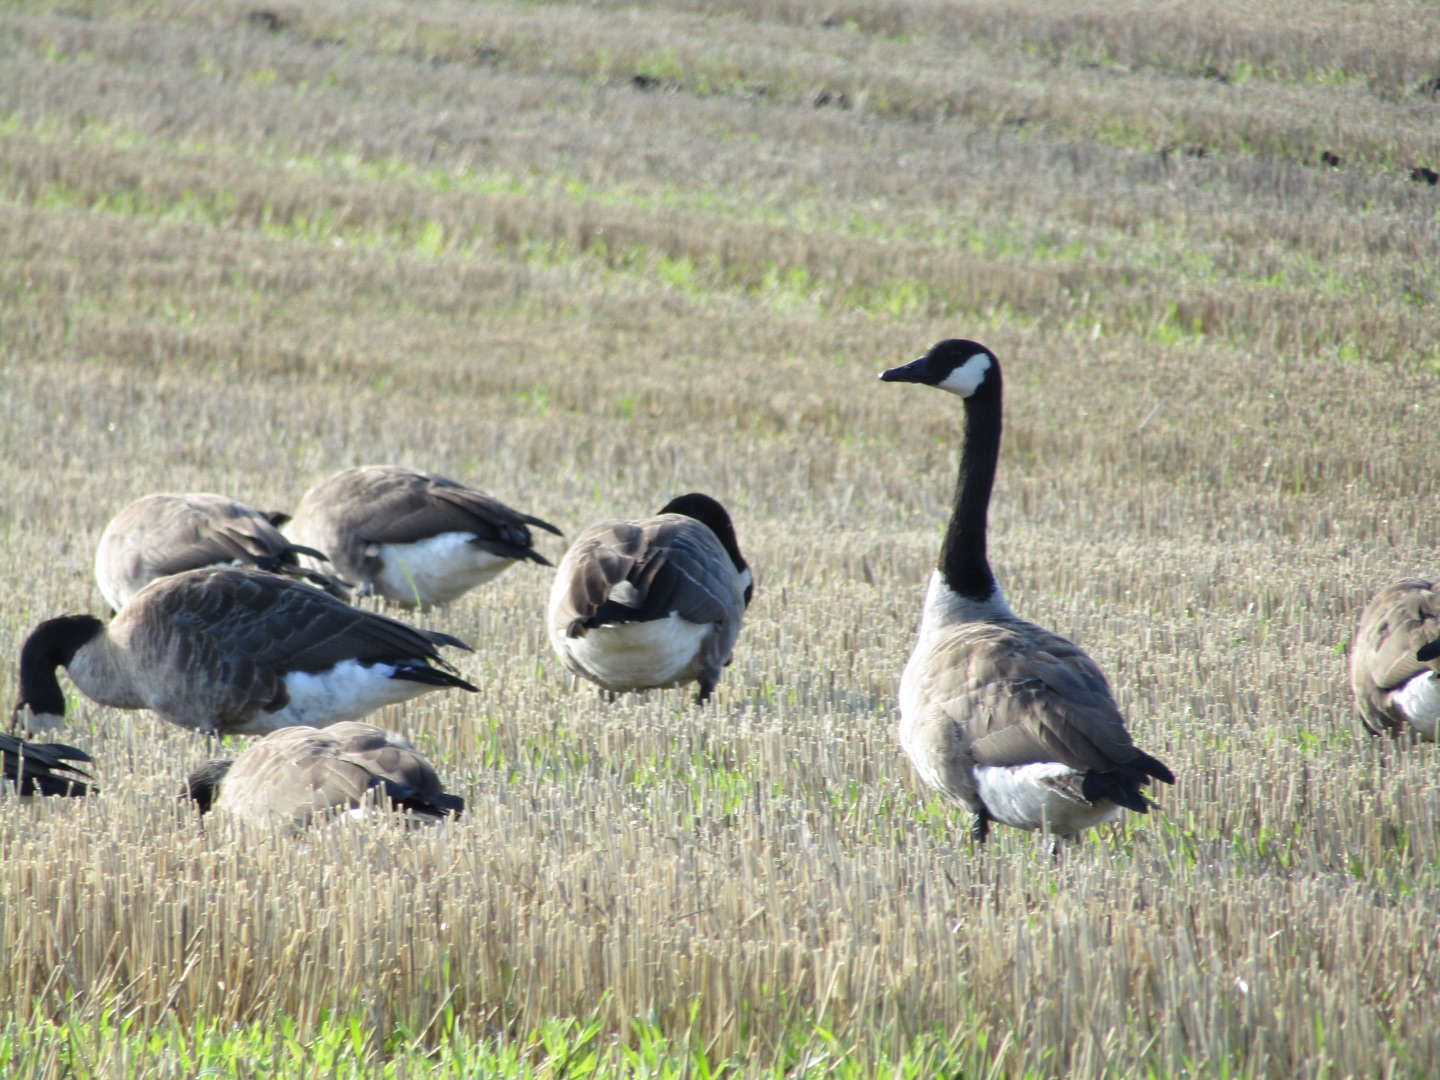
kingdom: Animalia
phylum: Chordata
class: Aves
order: Anseriformes
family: Anatidae
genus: Branta
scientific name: Branta canadensis
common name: Canadagås
